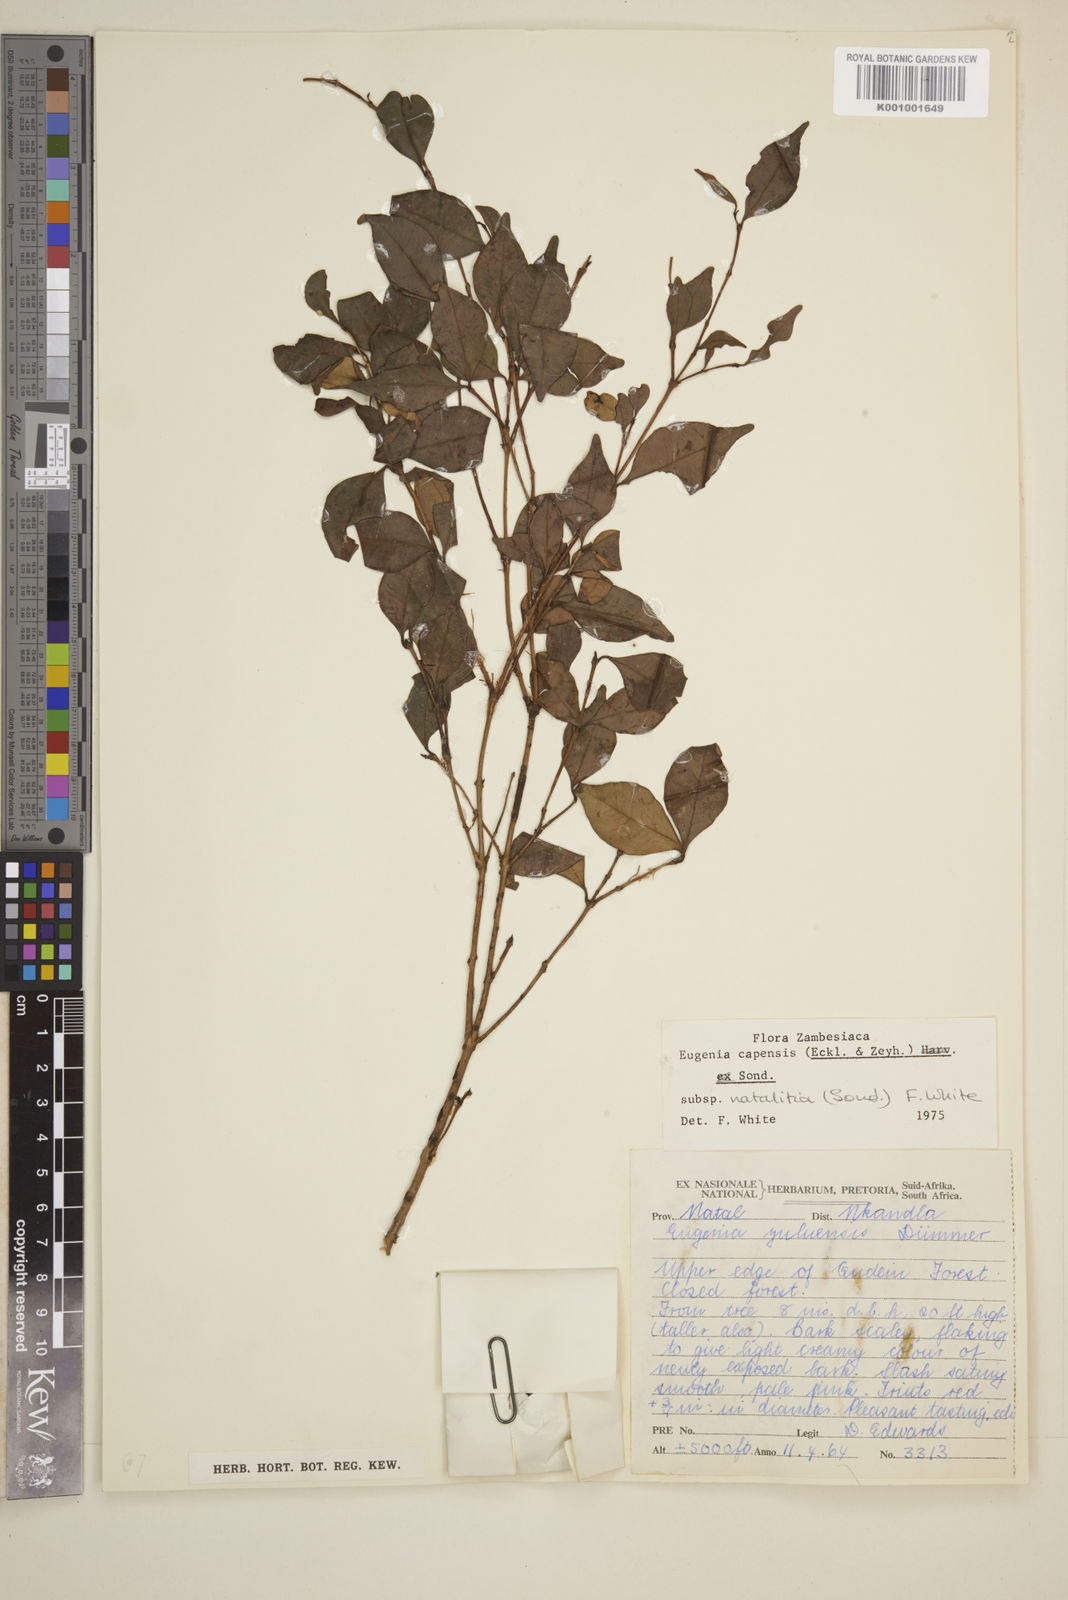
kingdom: Plantae
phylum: Tracheophyta
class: Magnoliopsida
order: Myrtales
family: Myrtaceae
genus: Eugenia
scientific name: Eugenia natalitia
